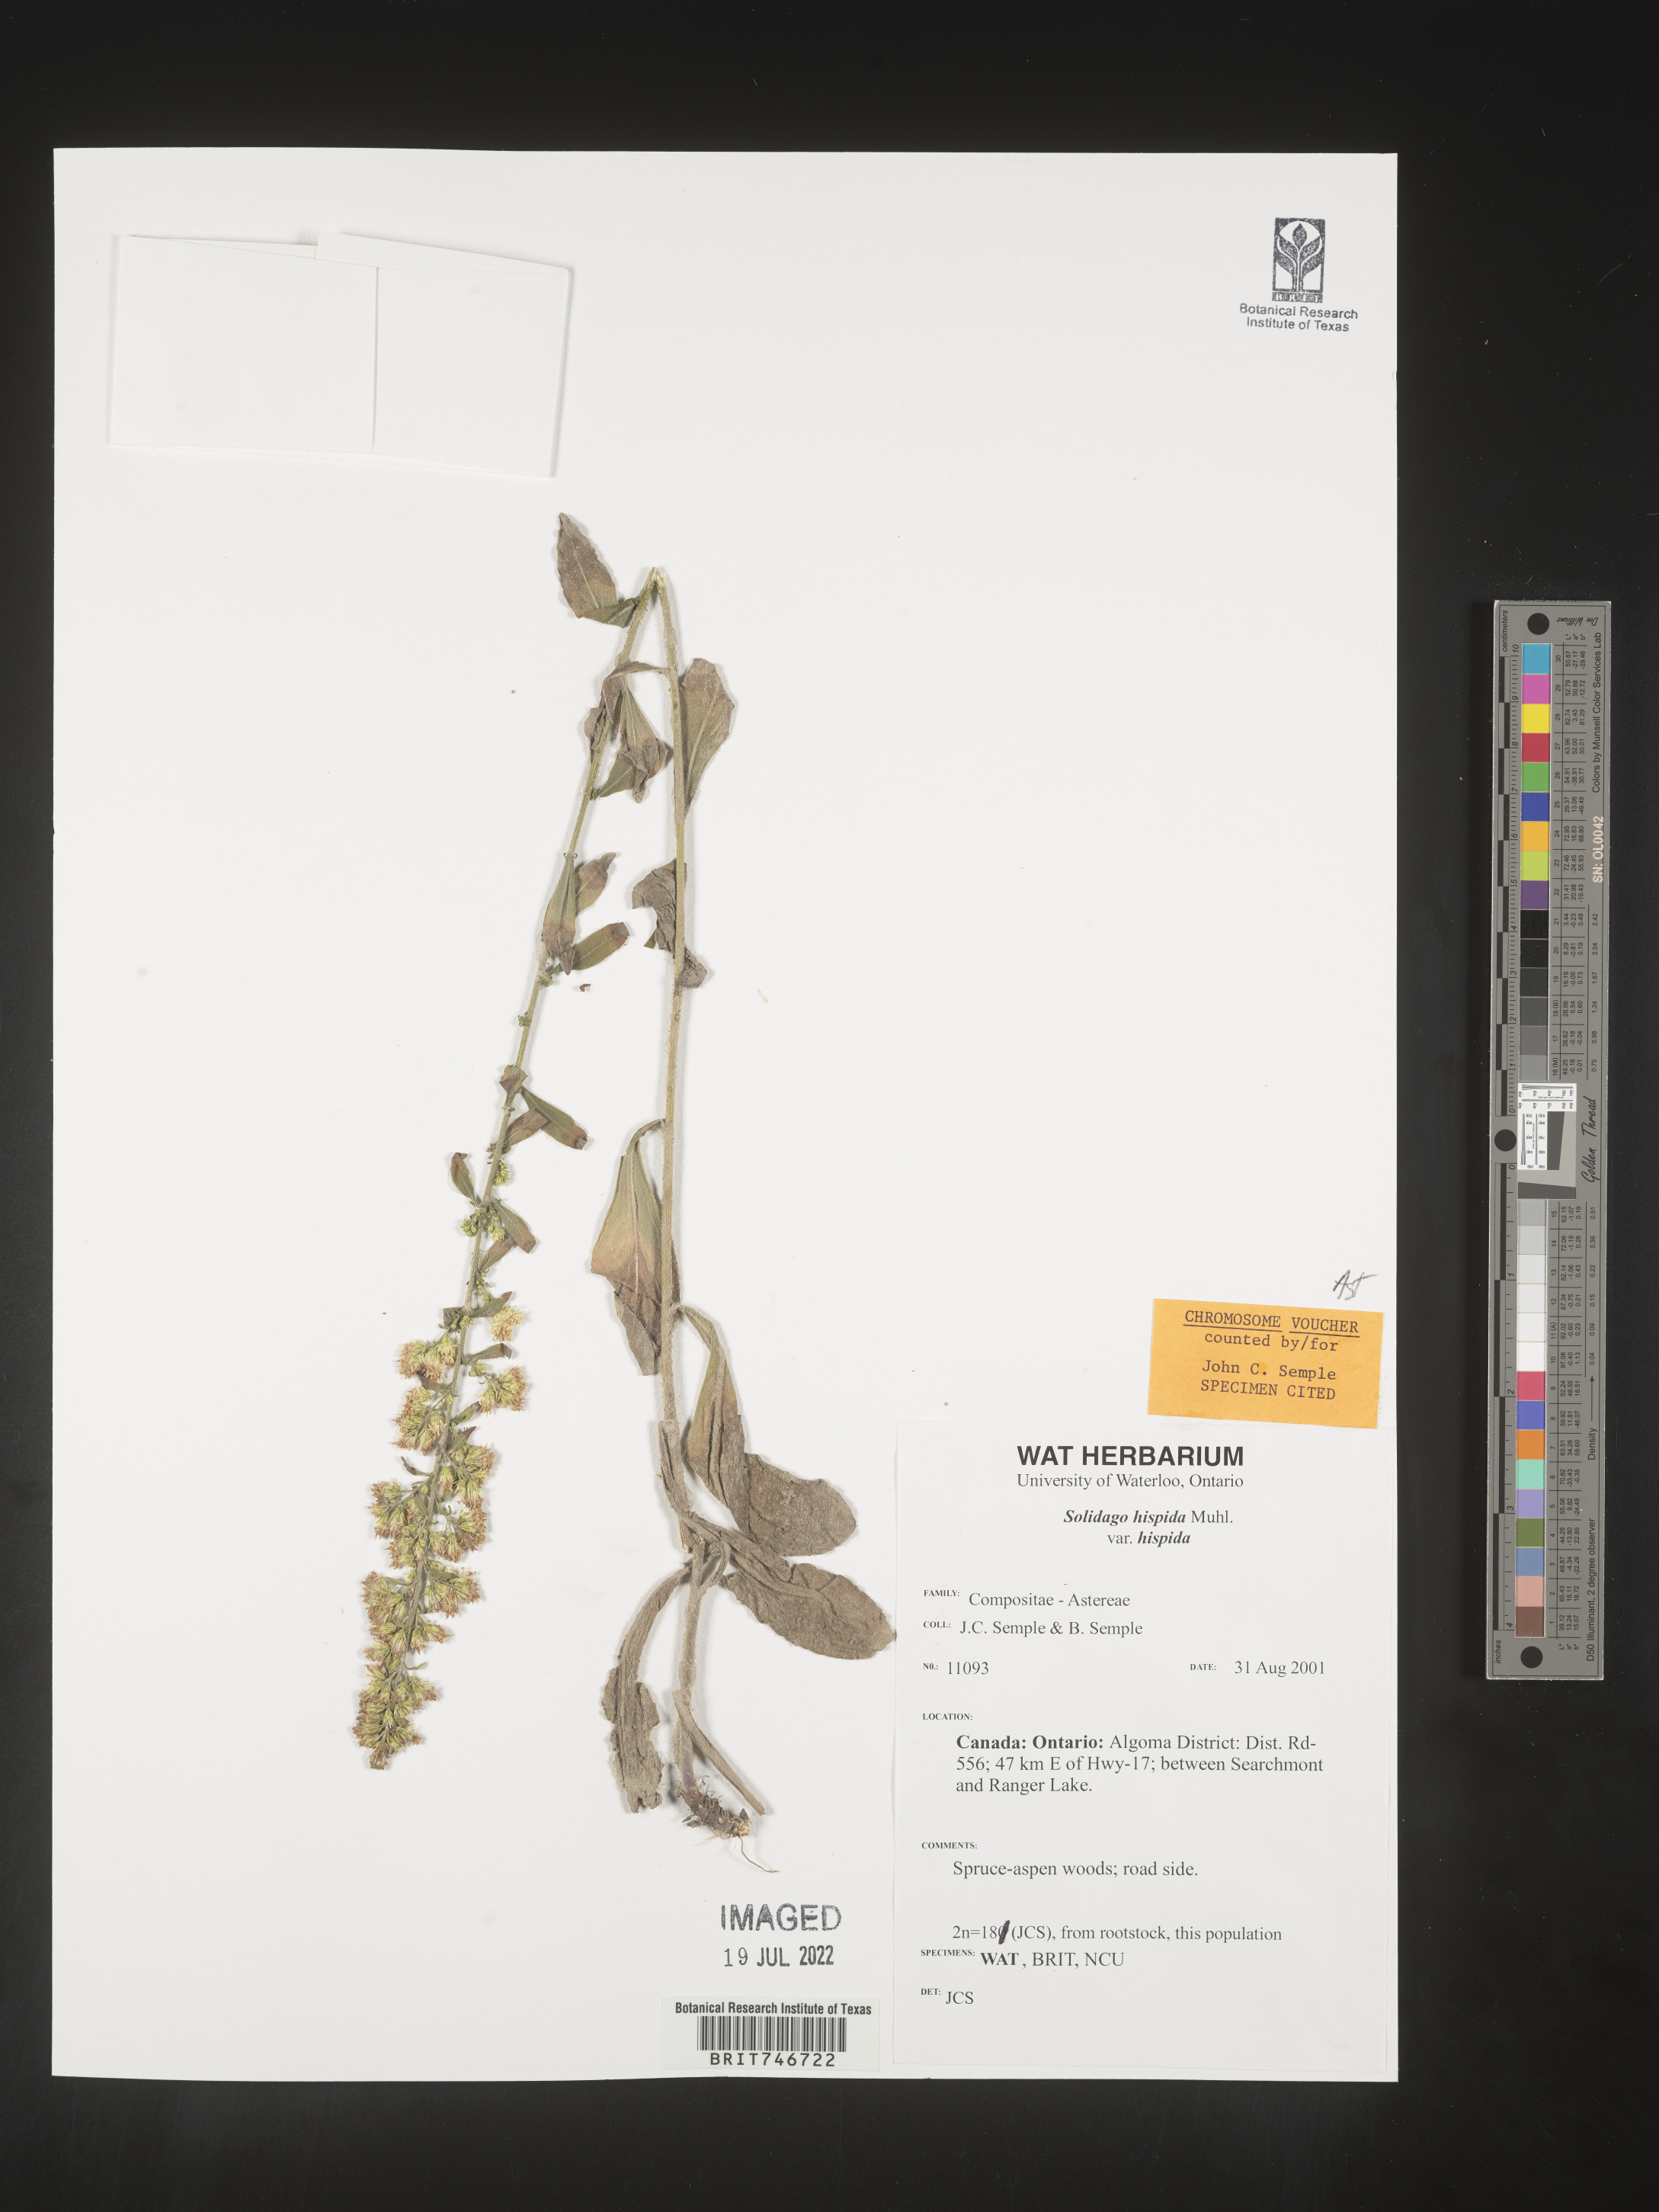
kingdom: Plantae
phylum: Tracheophyta
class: Magnoliopsida
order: Asterales
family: Asteraceae
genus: Solidago
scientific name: Solidago hispida
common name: Hairy goldenrod
